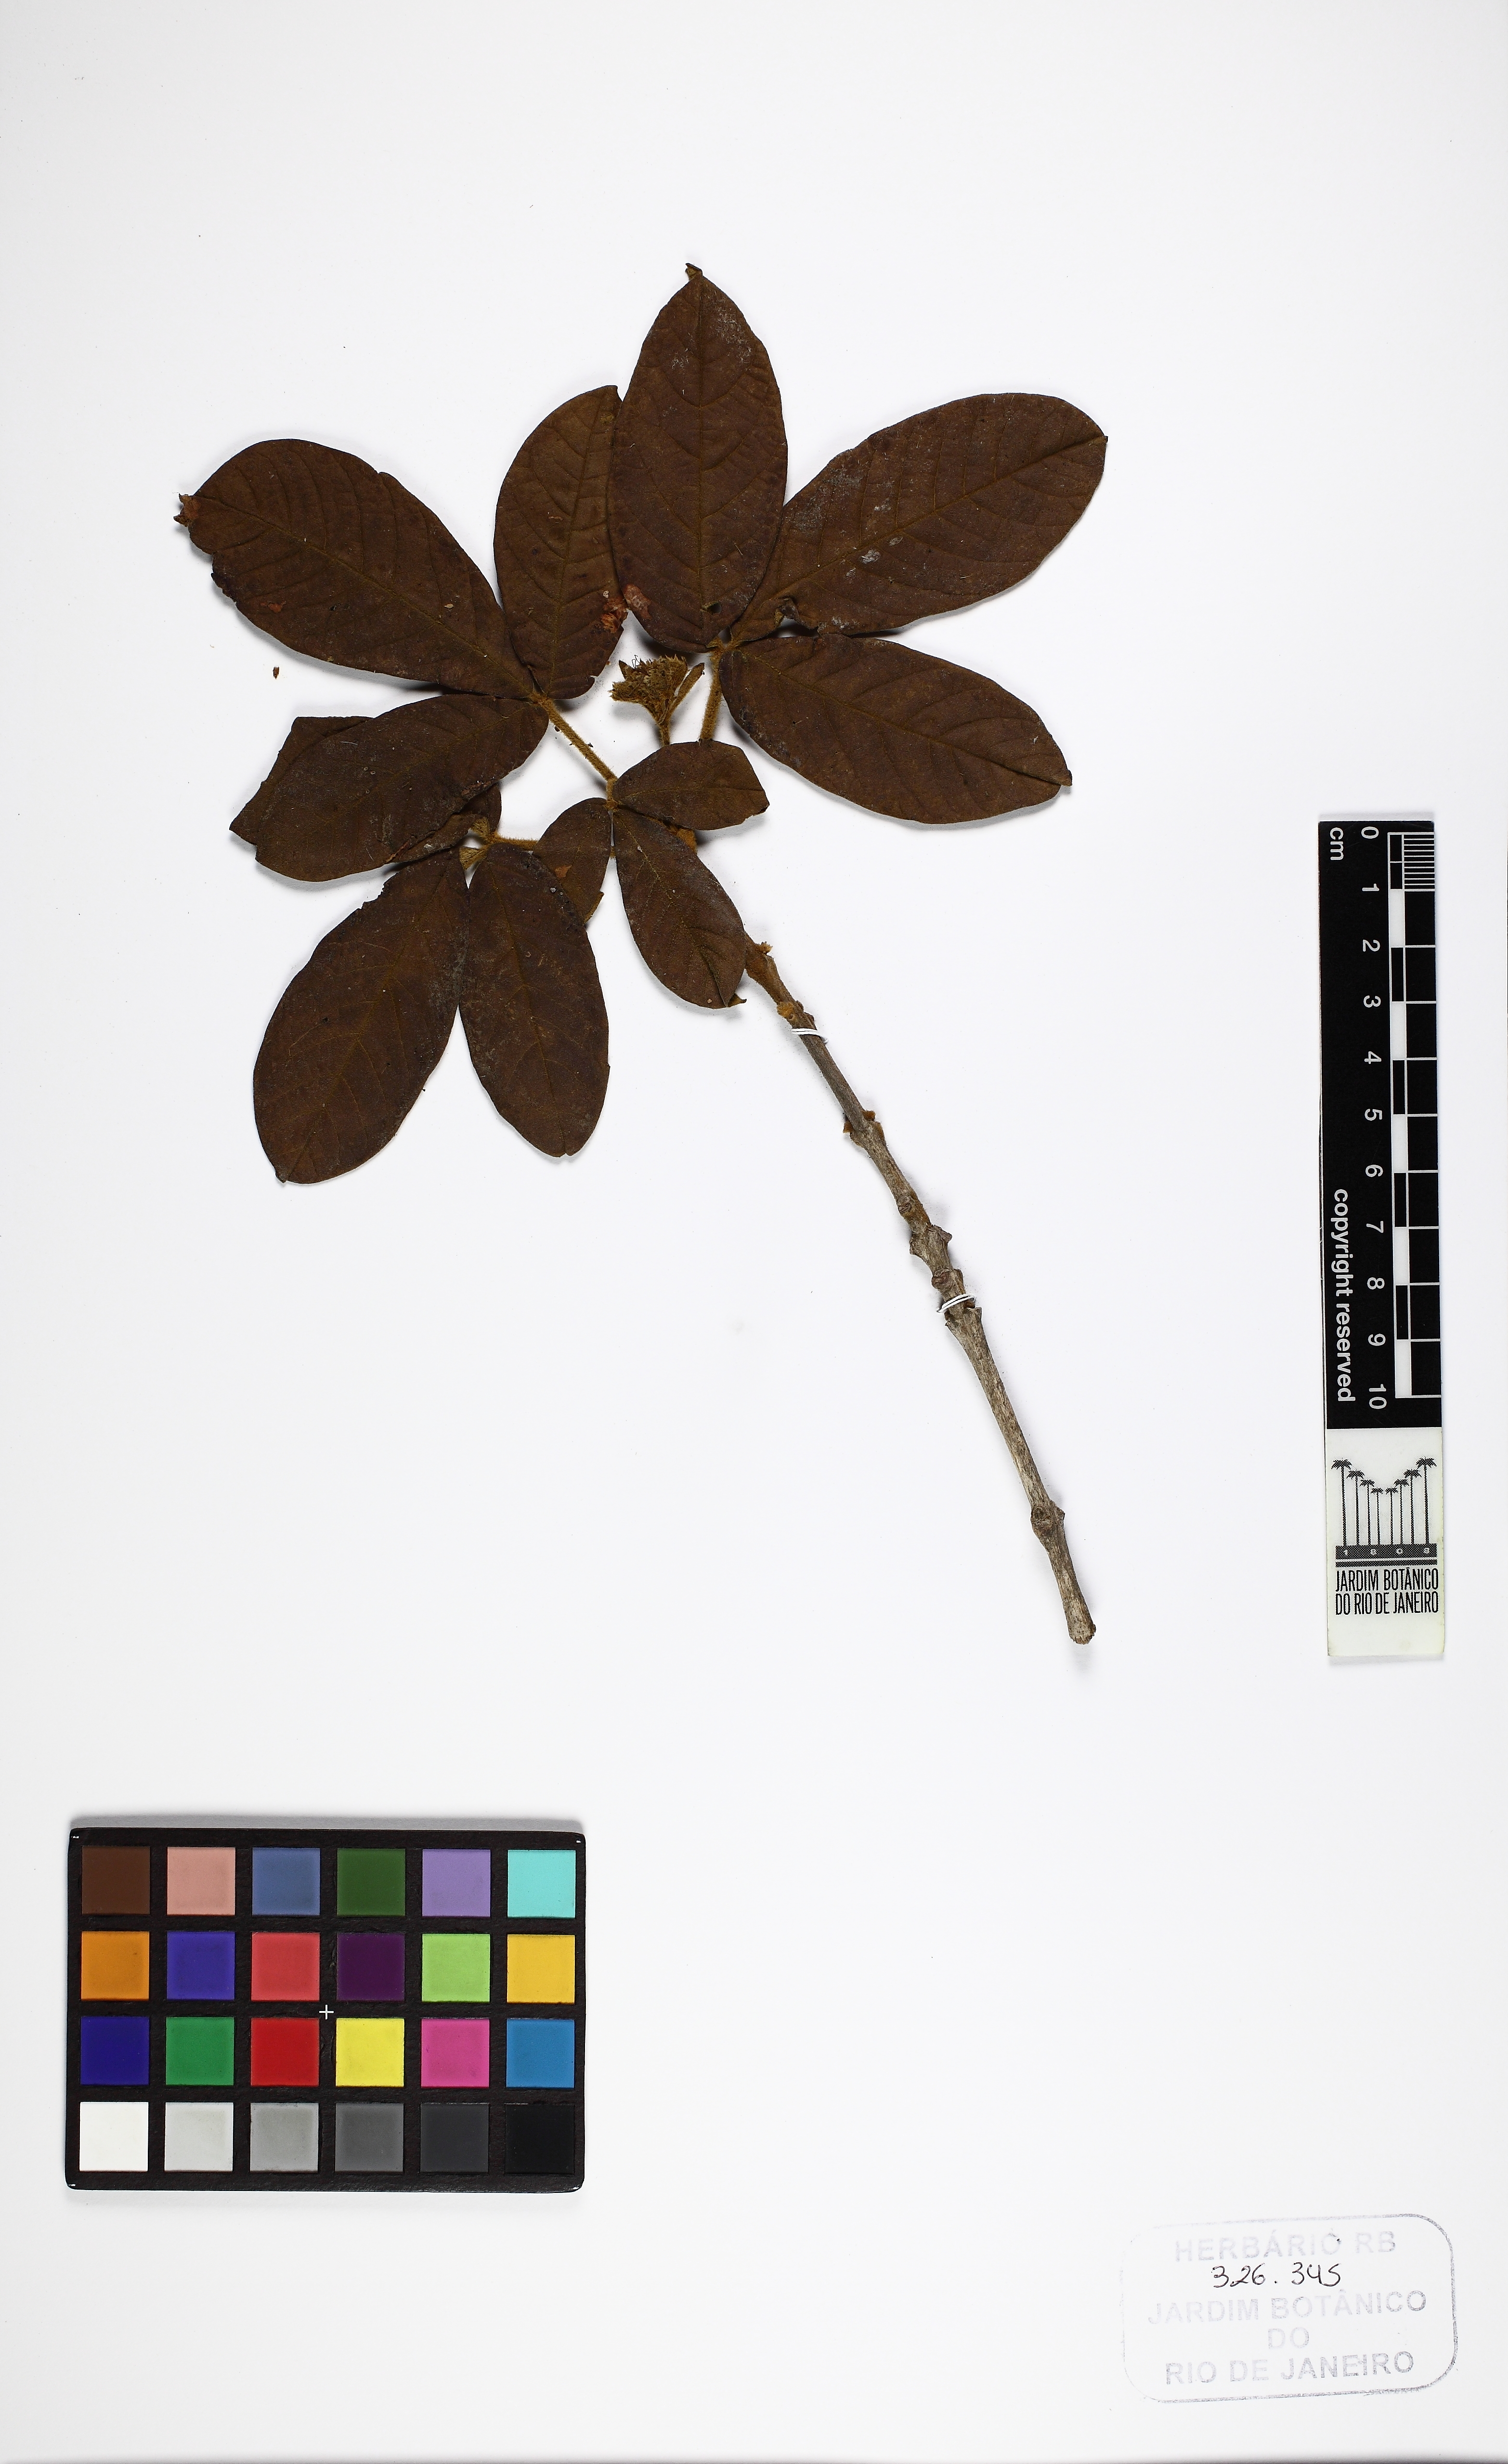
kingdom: Plantae
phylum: Tracheophyta
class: Magnoliopsida
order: Lamiales
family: Lamiaceae
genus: Vitex
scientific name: Vitex
